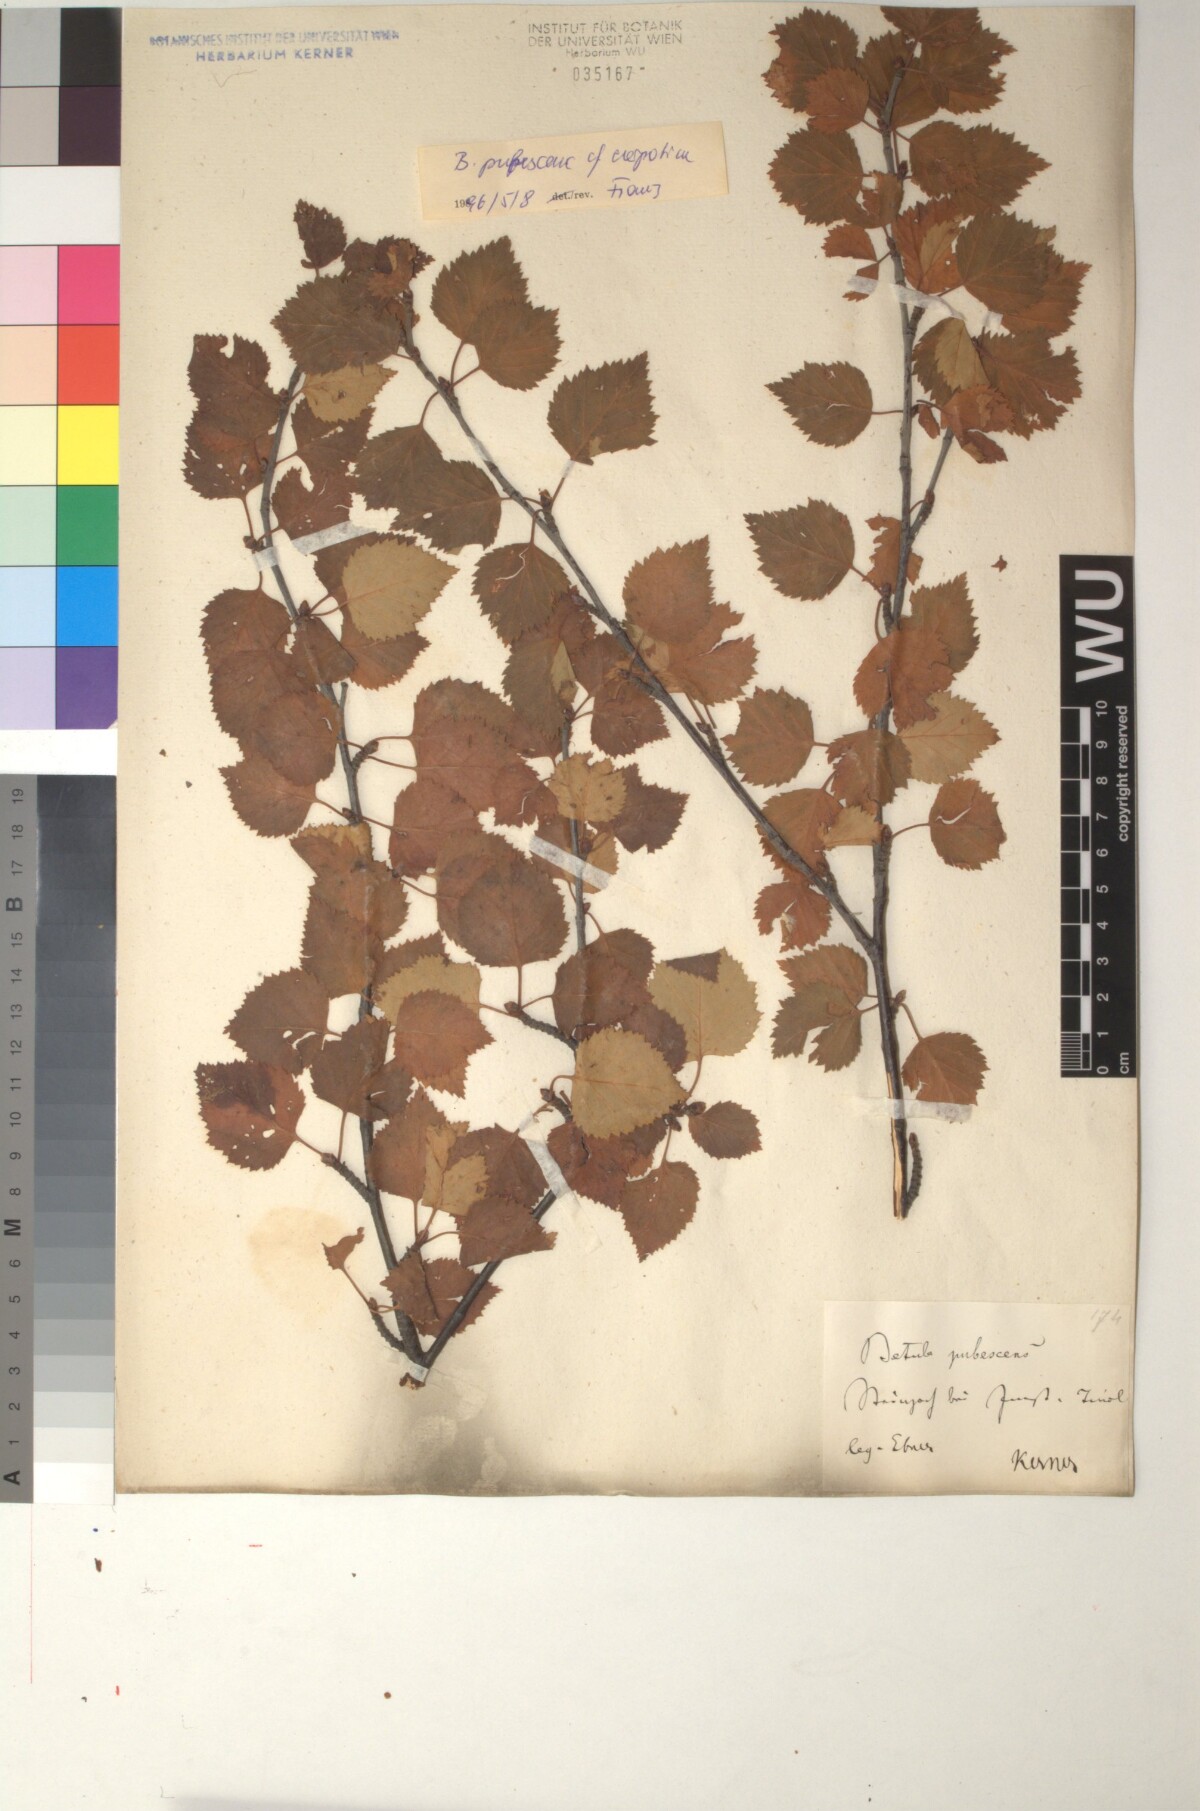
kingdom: Plantae
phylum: Tracheophyta
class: Magnoliopsida
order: Fagales
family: Betulaceae
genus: Betula
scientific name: Betula pubescens
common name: Downy birch
